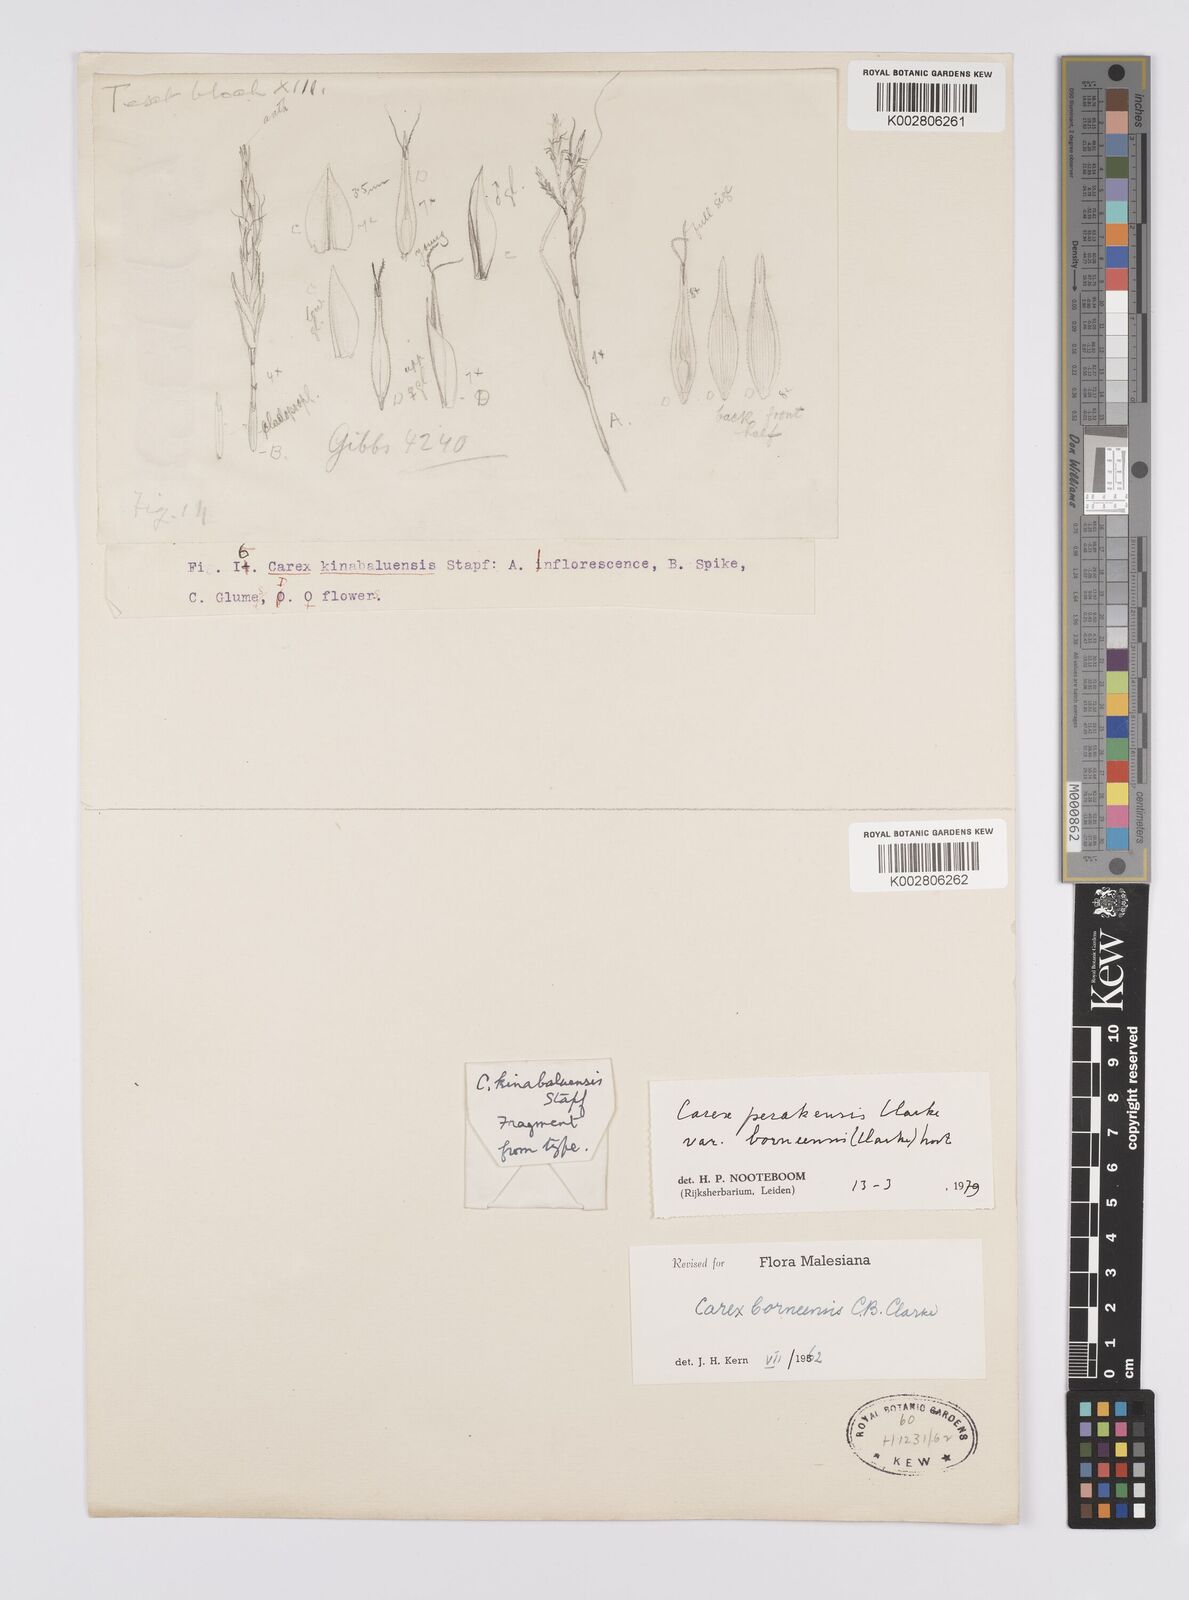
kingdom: Plantae
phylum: Tracheophyta
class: Liliopsida
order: Poales
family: Cyperaceae
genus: Carex
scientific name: Carex perakensis
